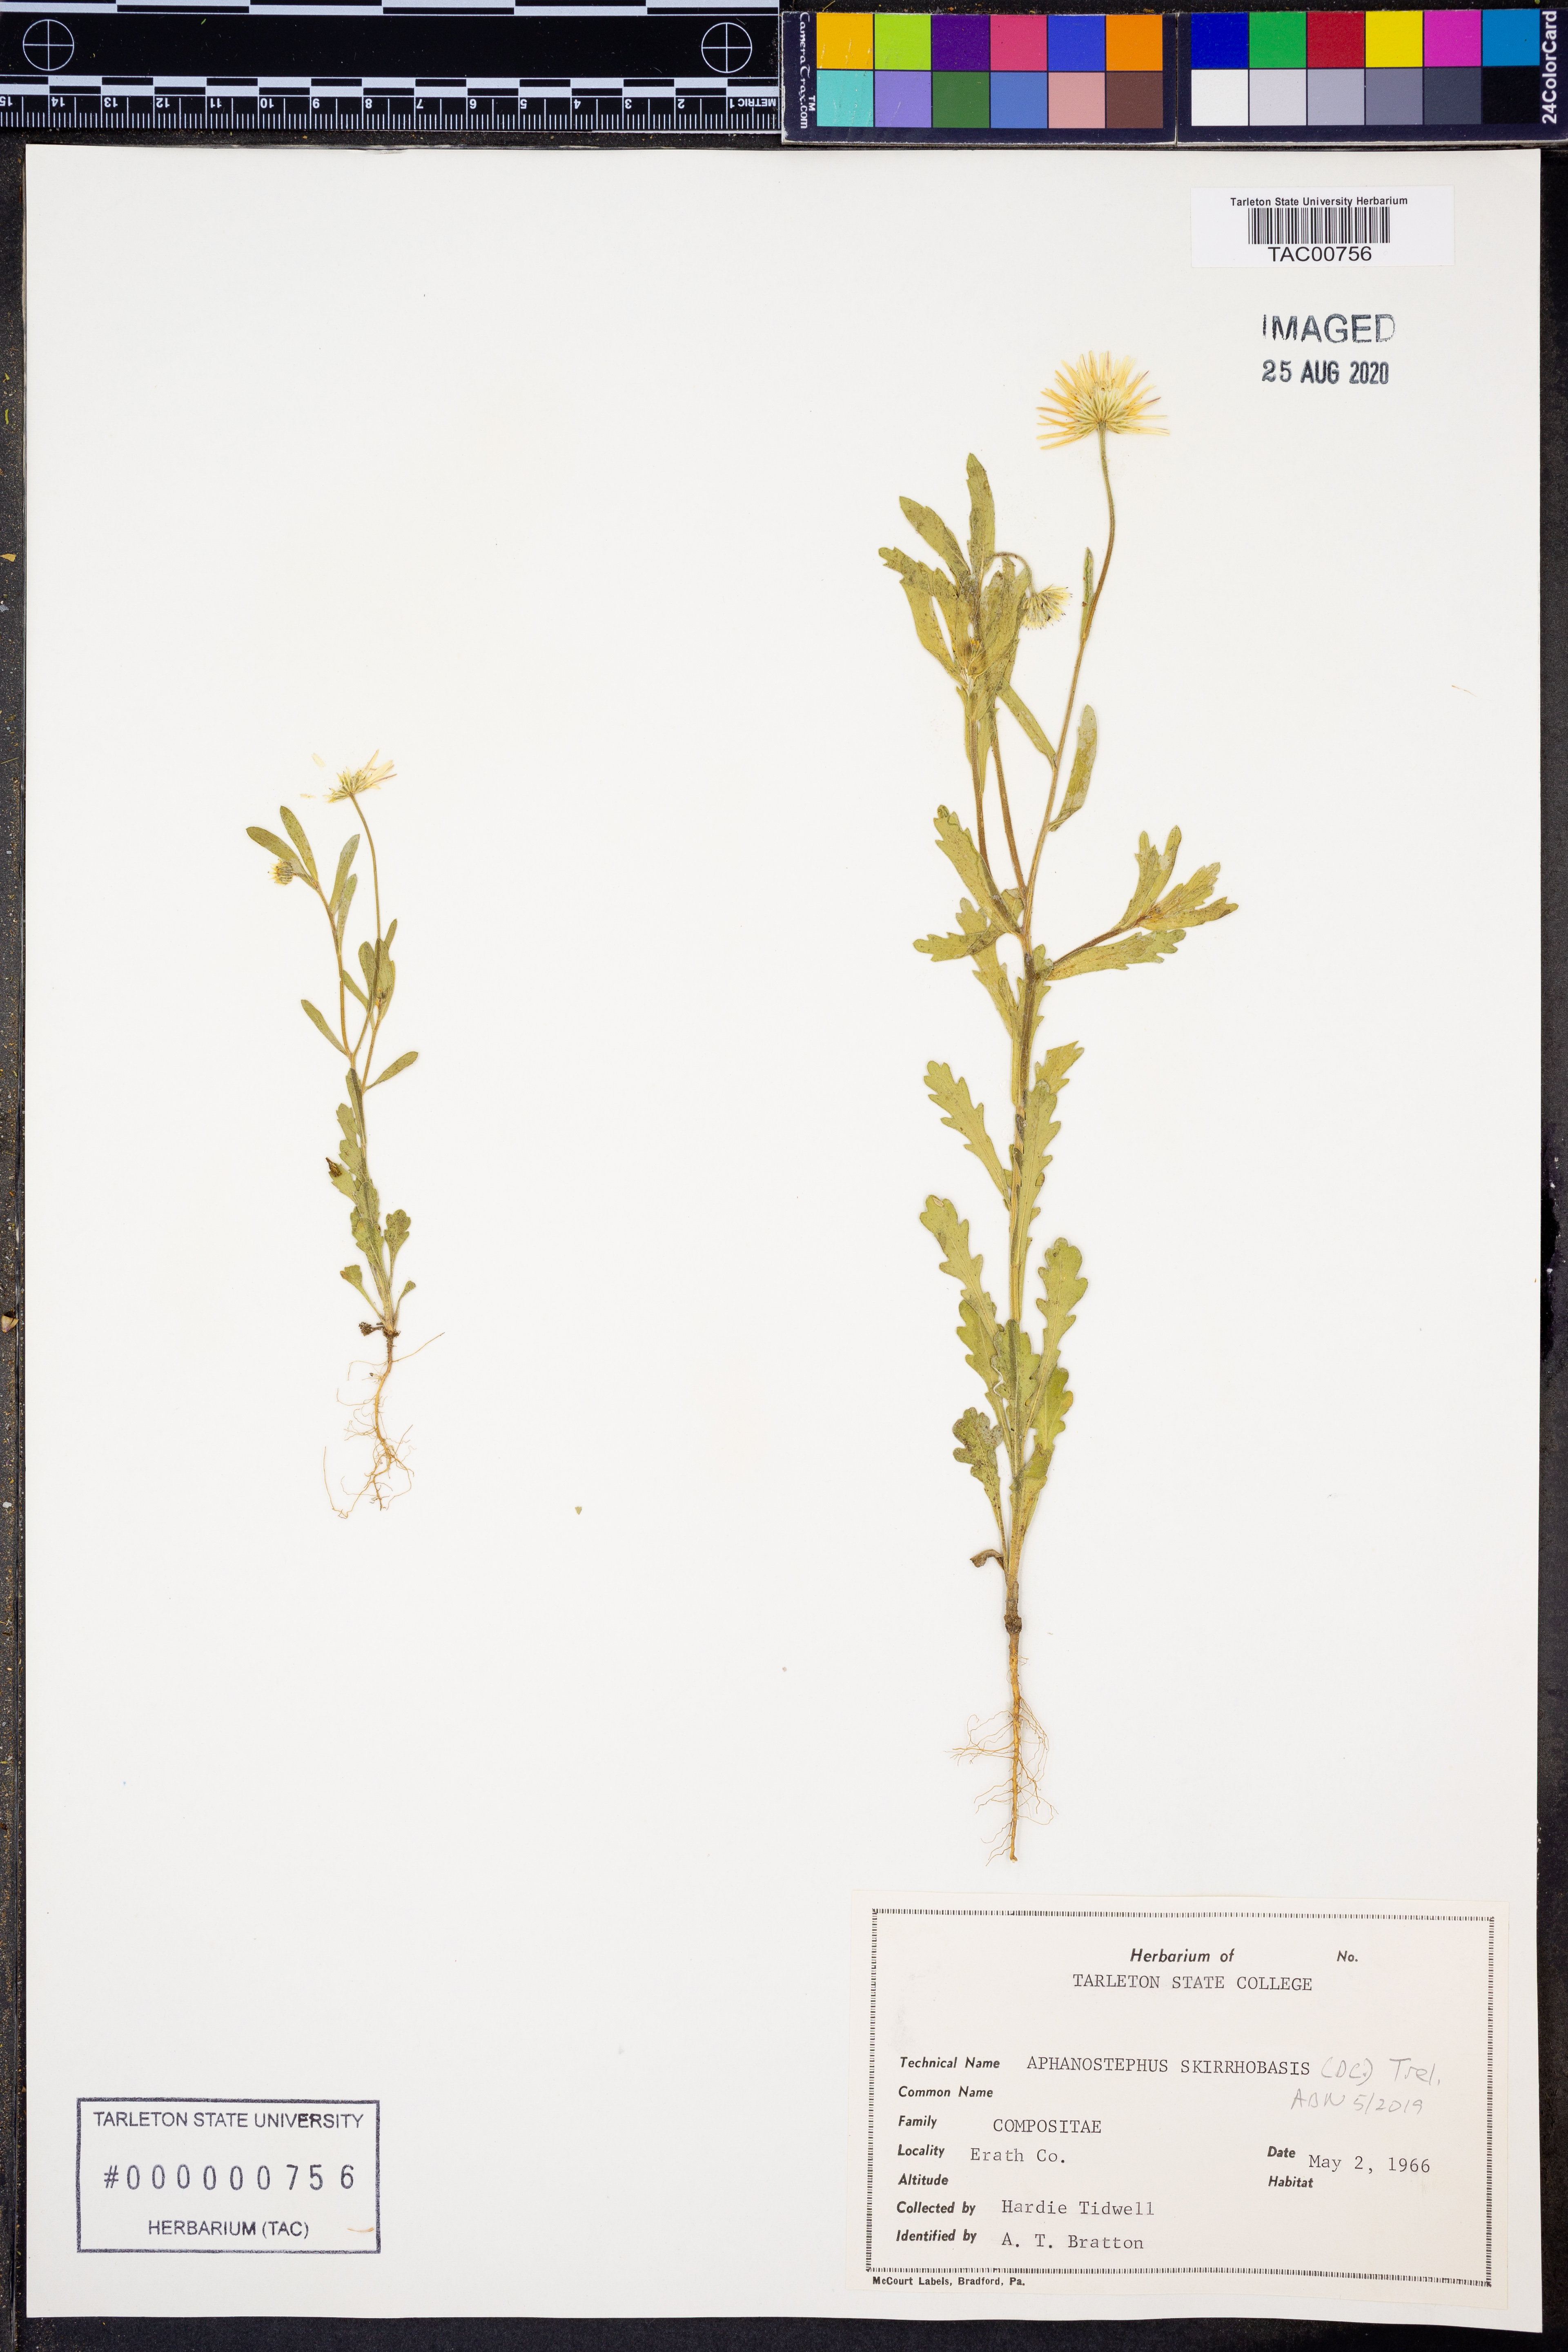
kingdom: Plantae
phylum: Tracheophyta
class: Magnoliopsida
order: Asterales
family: Asteraceae
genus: Aphanostephus
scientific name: Aphanostephus skirrhobasis
